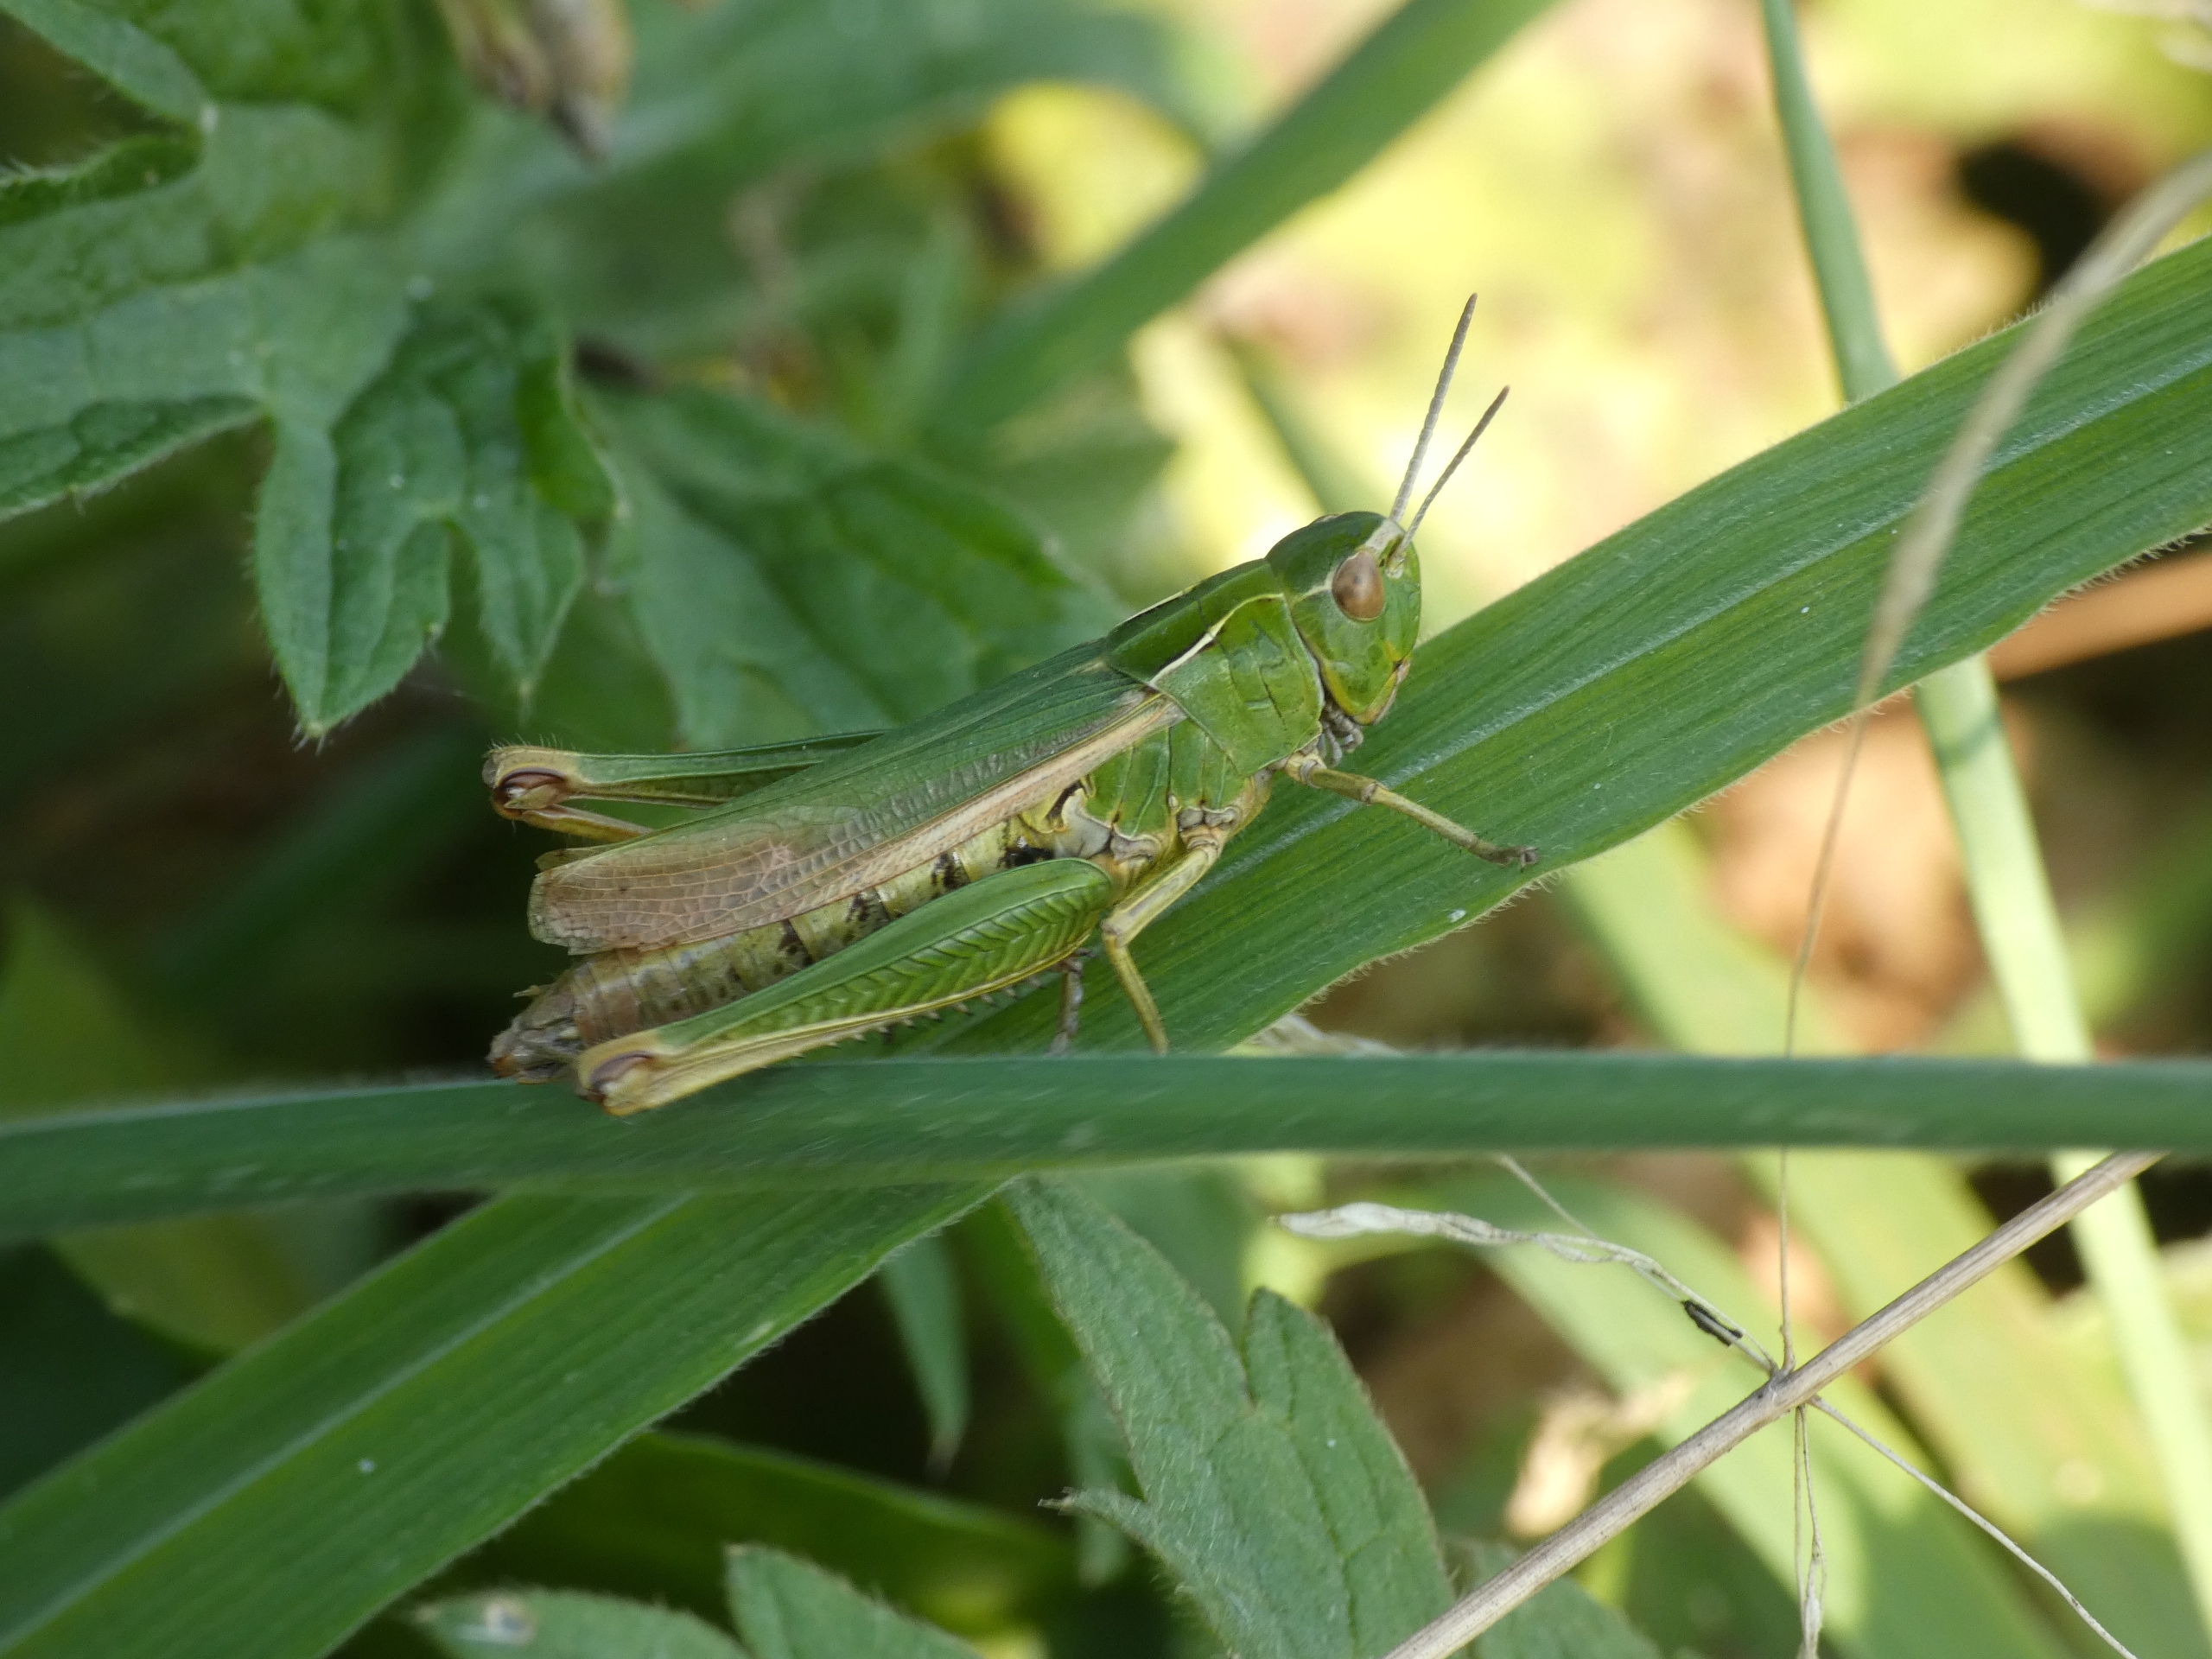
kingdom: Animalia
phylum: Arthropoda
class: Insecta
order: Orthoptera
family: Acrididae
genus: Omocestus
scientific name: Omocestus viridulus
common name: Lynggræshoppe
